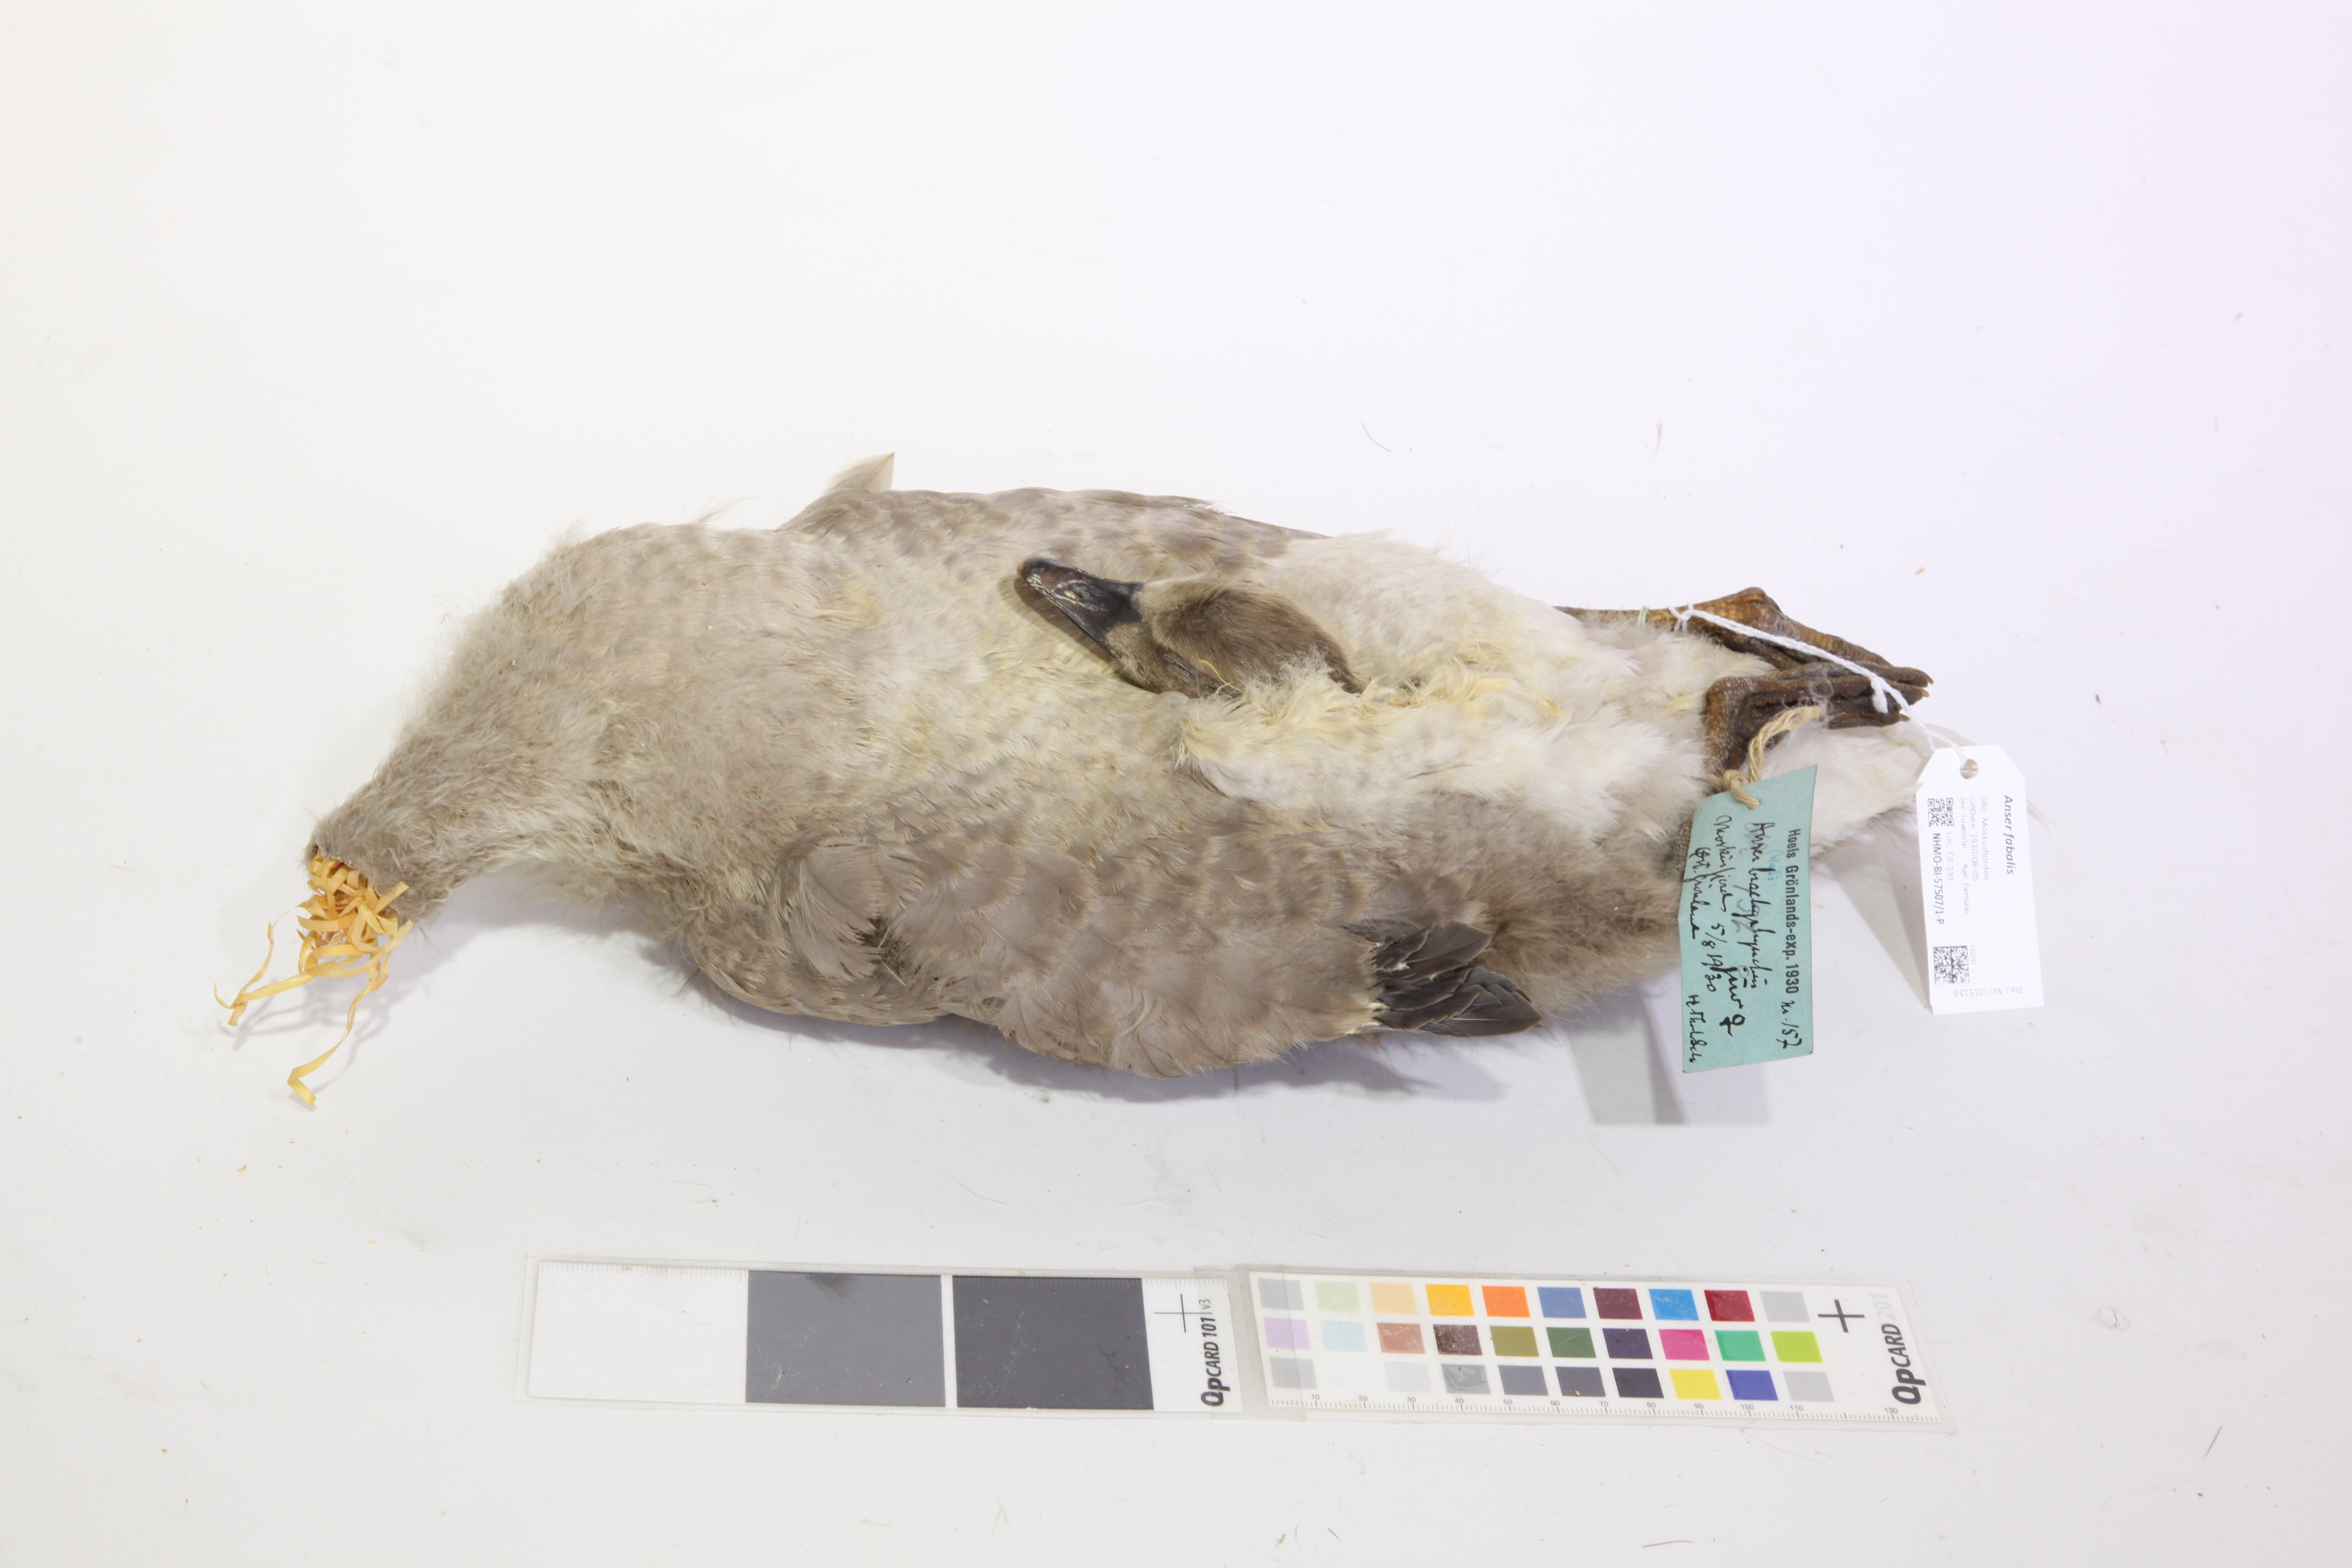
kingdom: Animalia
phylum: Chordata
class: Aves
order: Anseriformes
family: Anatidae
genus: Anser
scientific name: Anser brachyrhynchus
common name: Pink-footed goose
